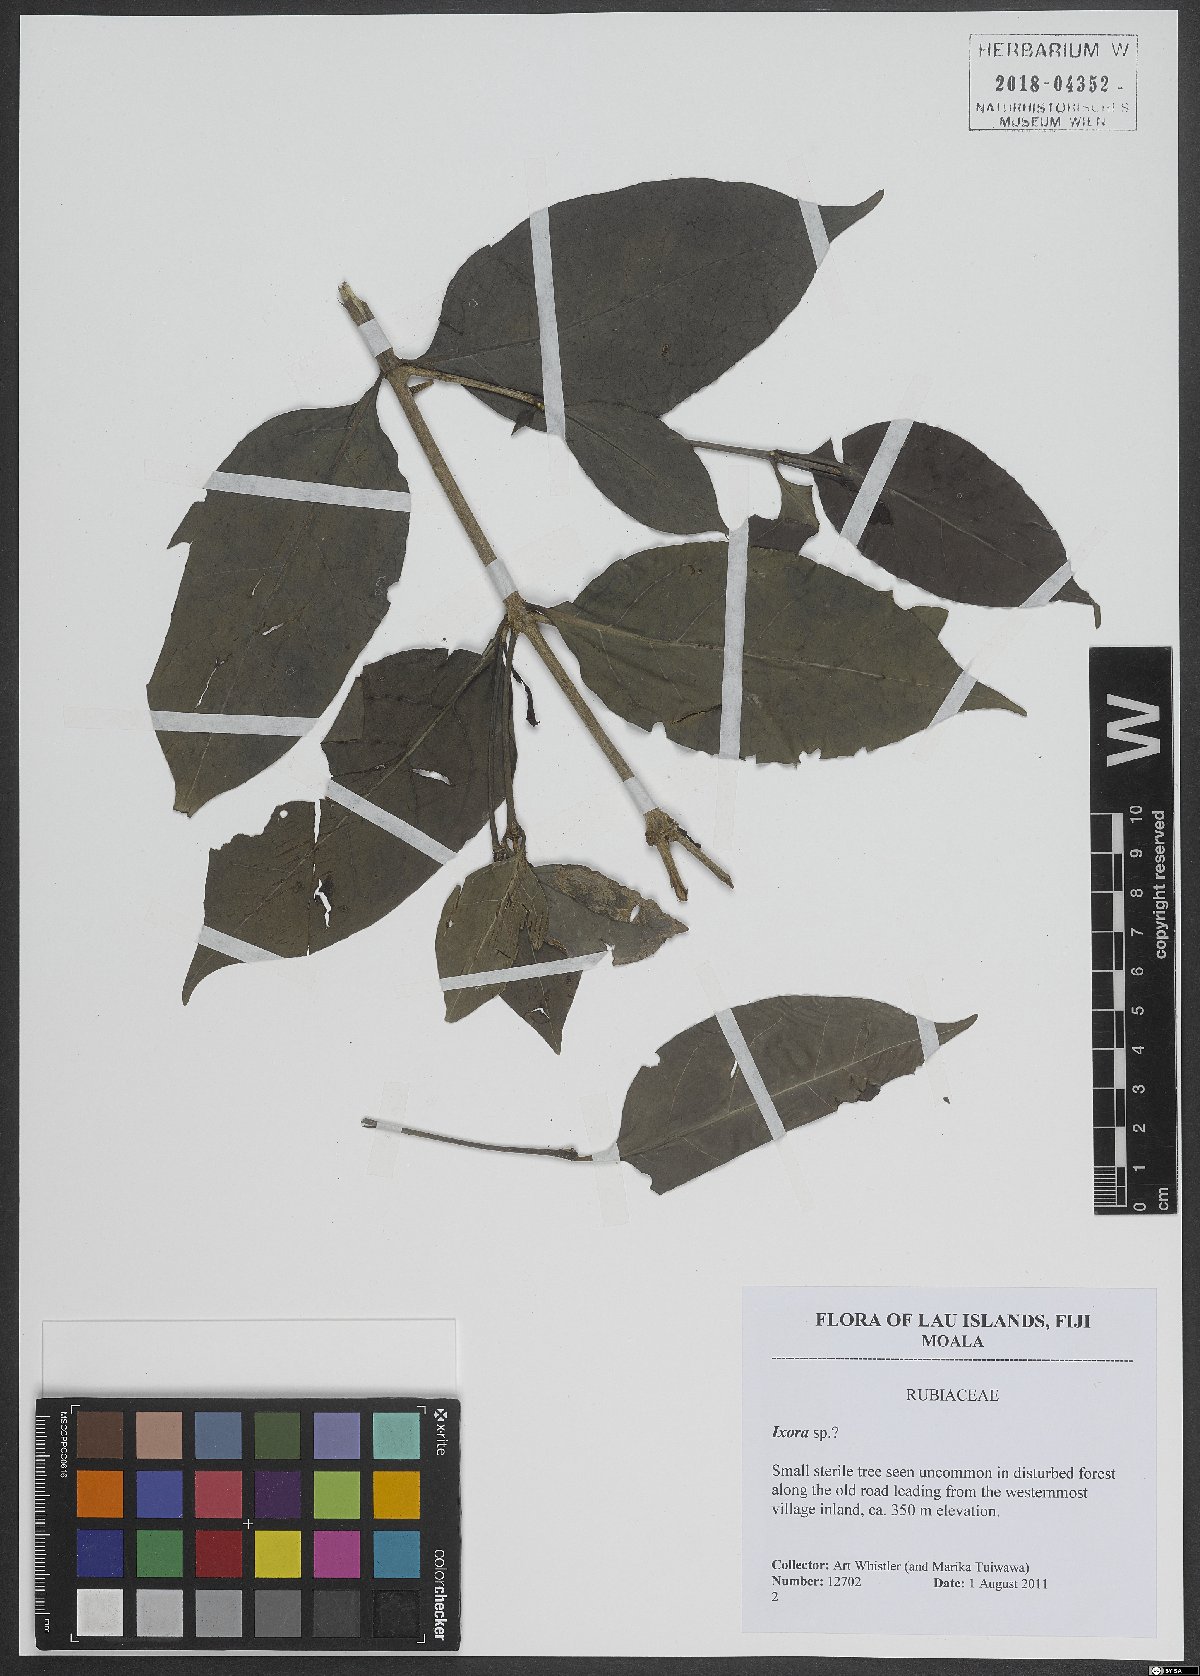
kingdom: Plantae
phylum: Tracheophyta
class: Magnoliopsida
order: Gentianales
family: Rubiaceae
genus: Ixora
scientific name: Ixora
